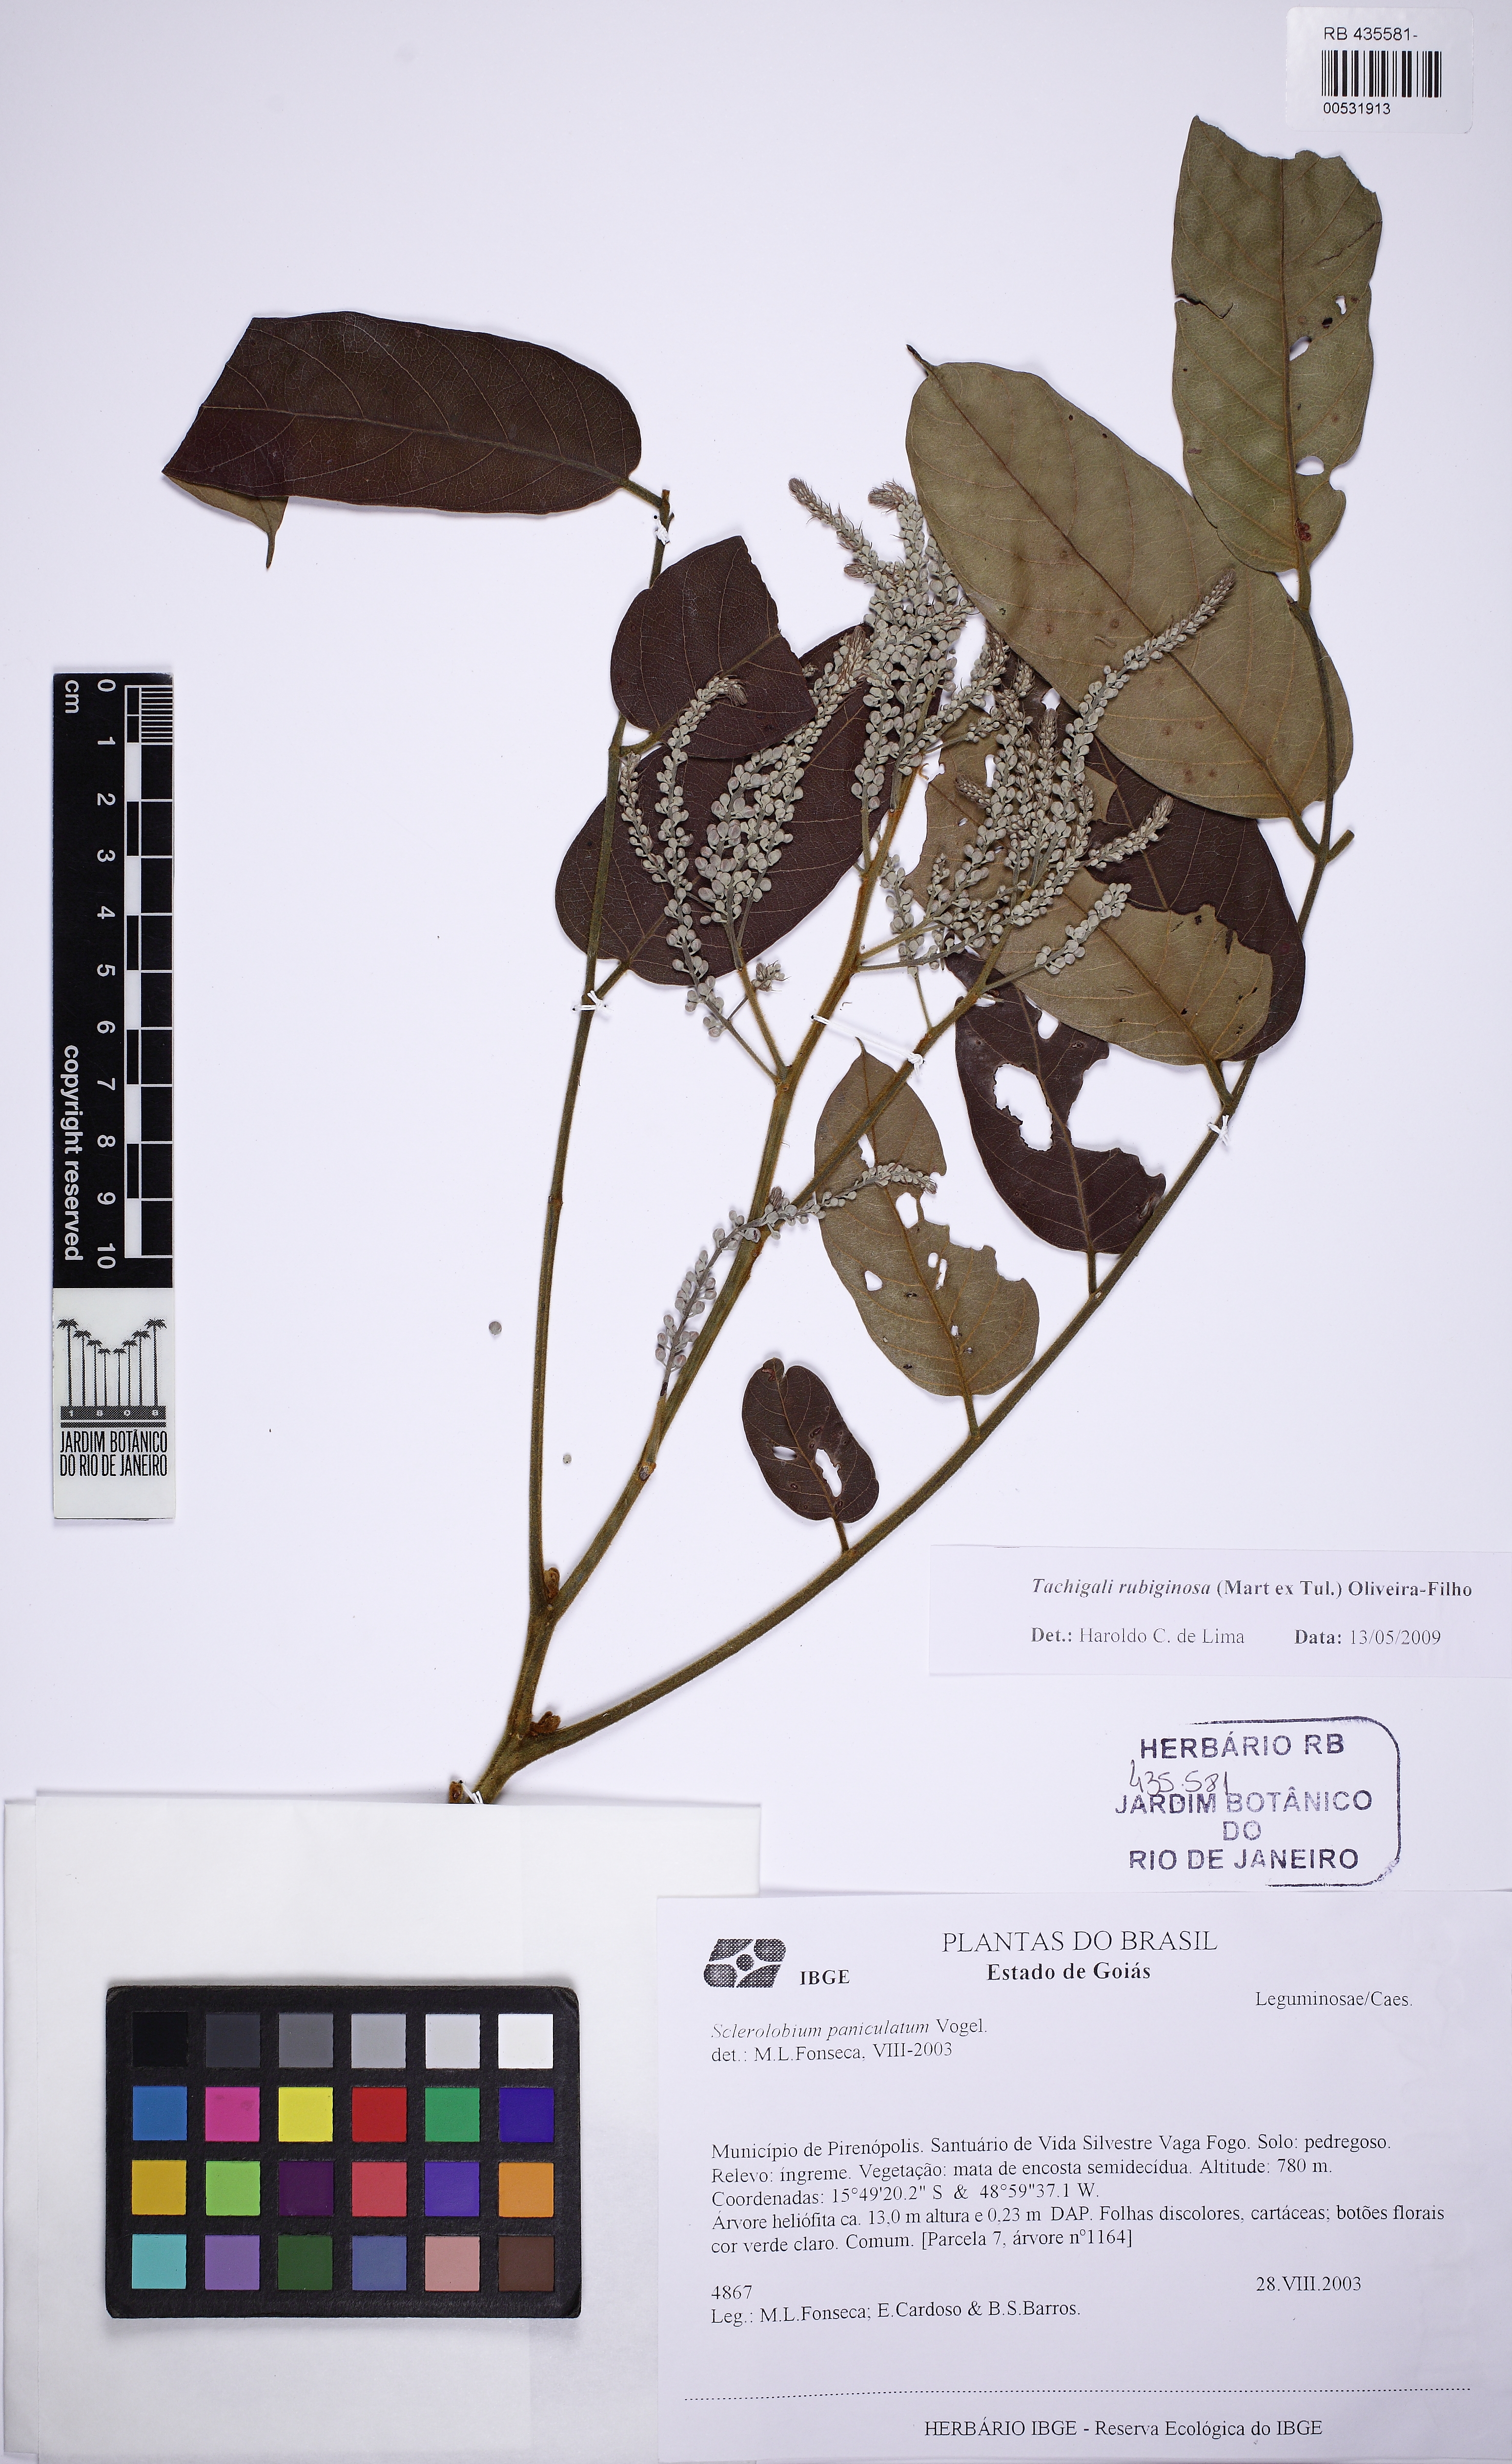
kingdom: Plantae
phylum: Tracheophyta
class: Magnoliopsida
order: Fabales
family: Fabaceae
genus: Tachigali
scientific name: Tachigali rubiginosa
